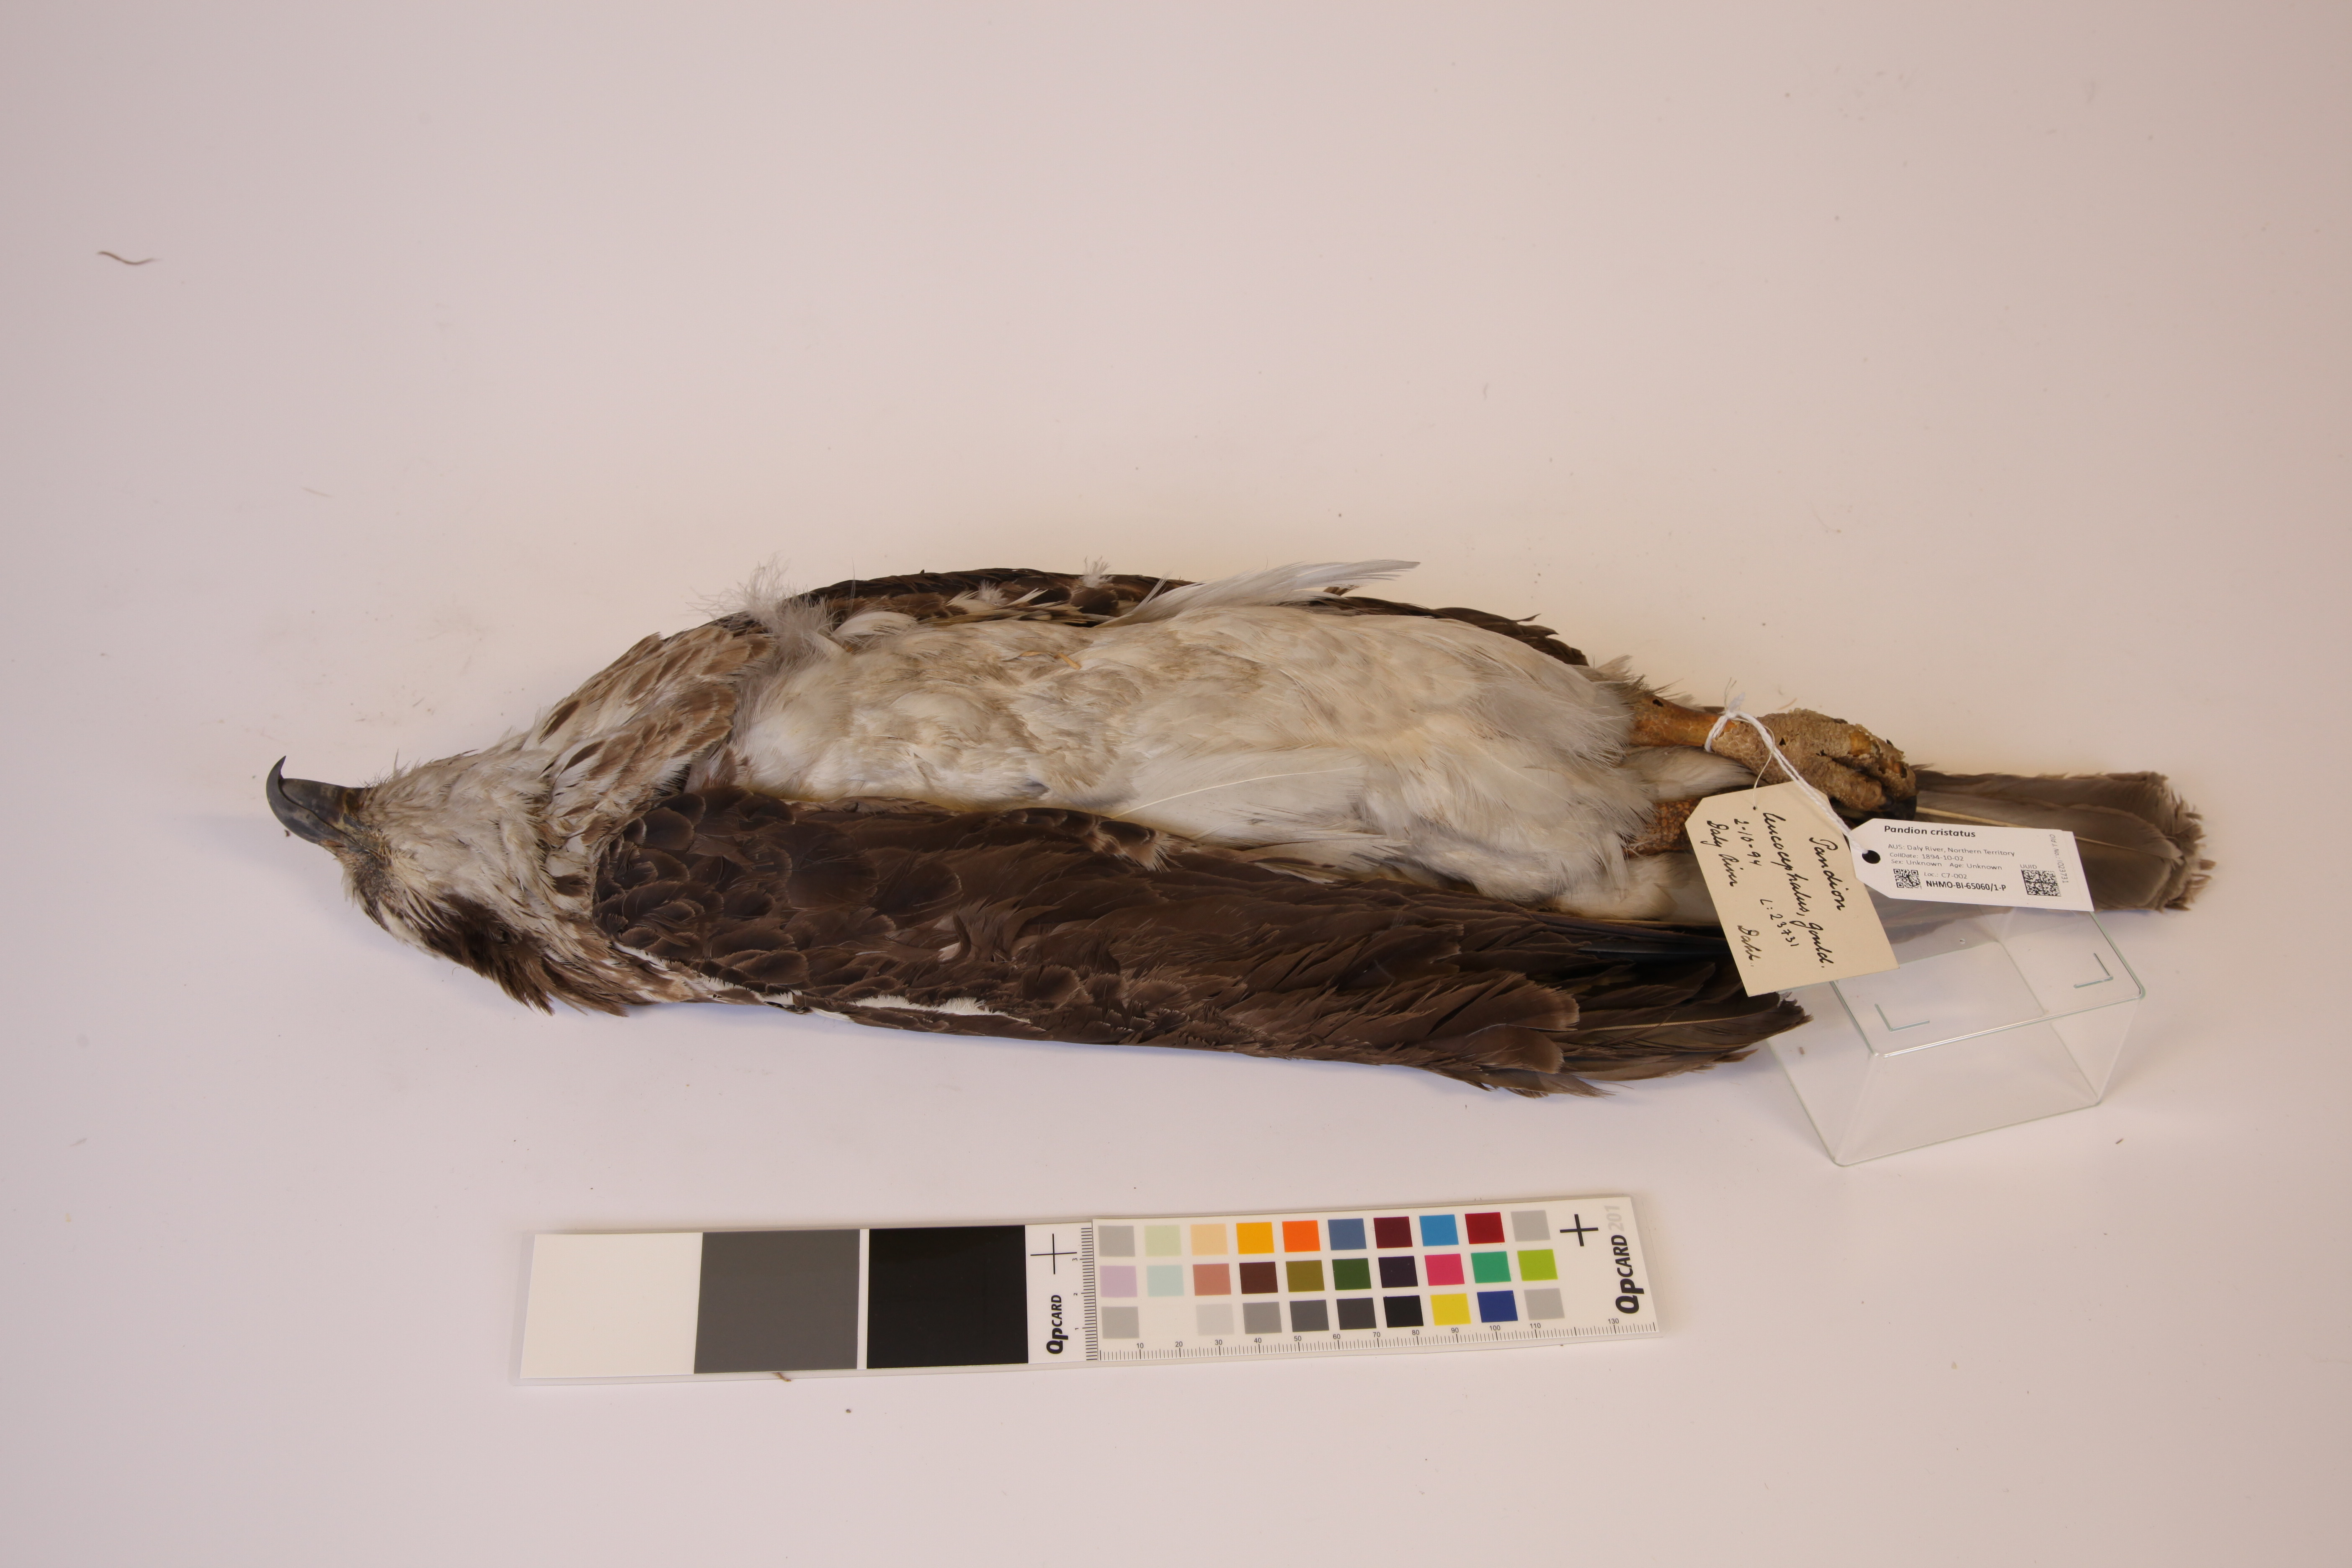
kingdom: Animalia
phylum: Chordata
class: Aves
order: Accipitriformes
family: Pandionidae
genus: Pandion
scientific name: Pandion cristatus
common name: Eastern osprey
